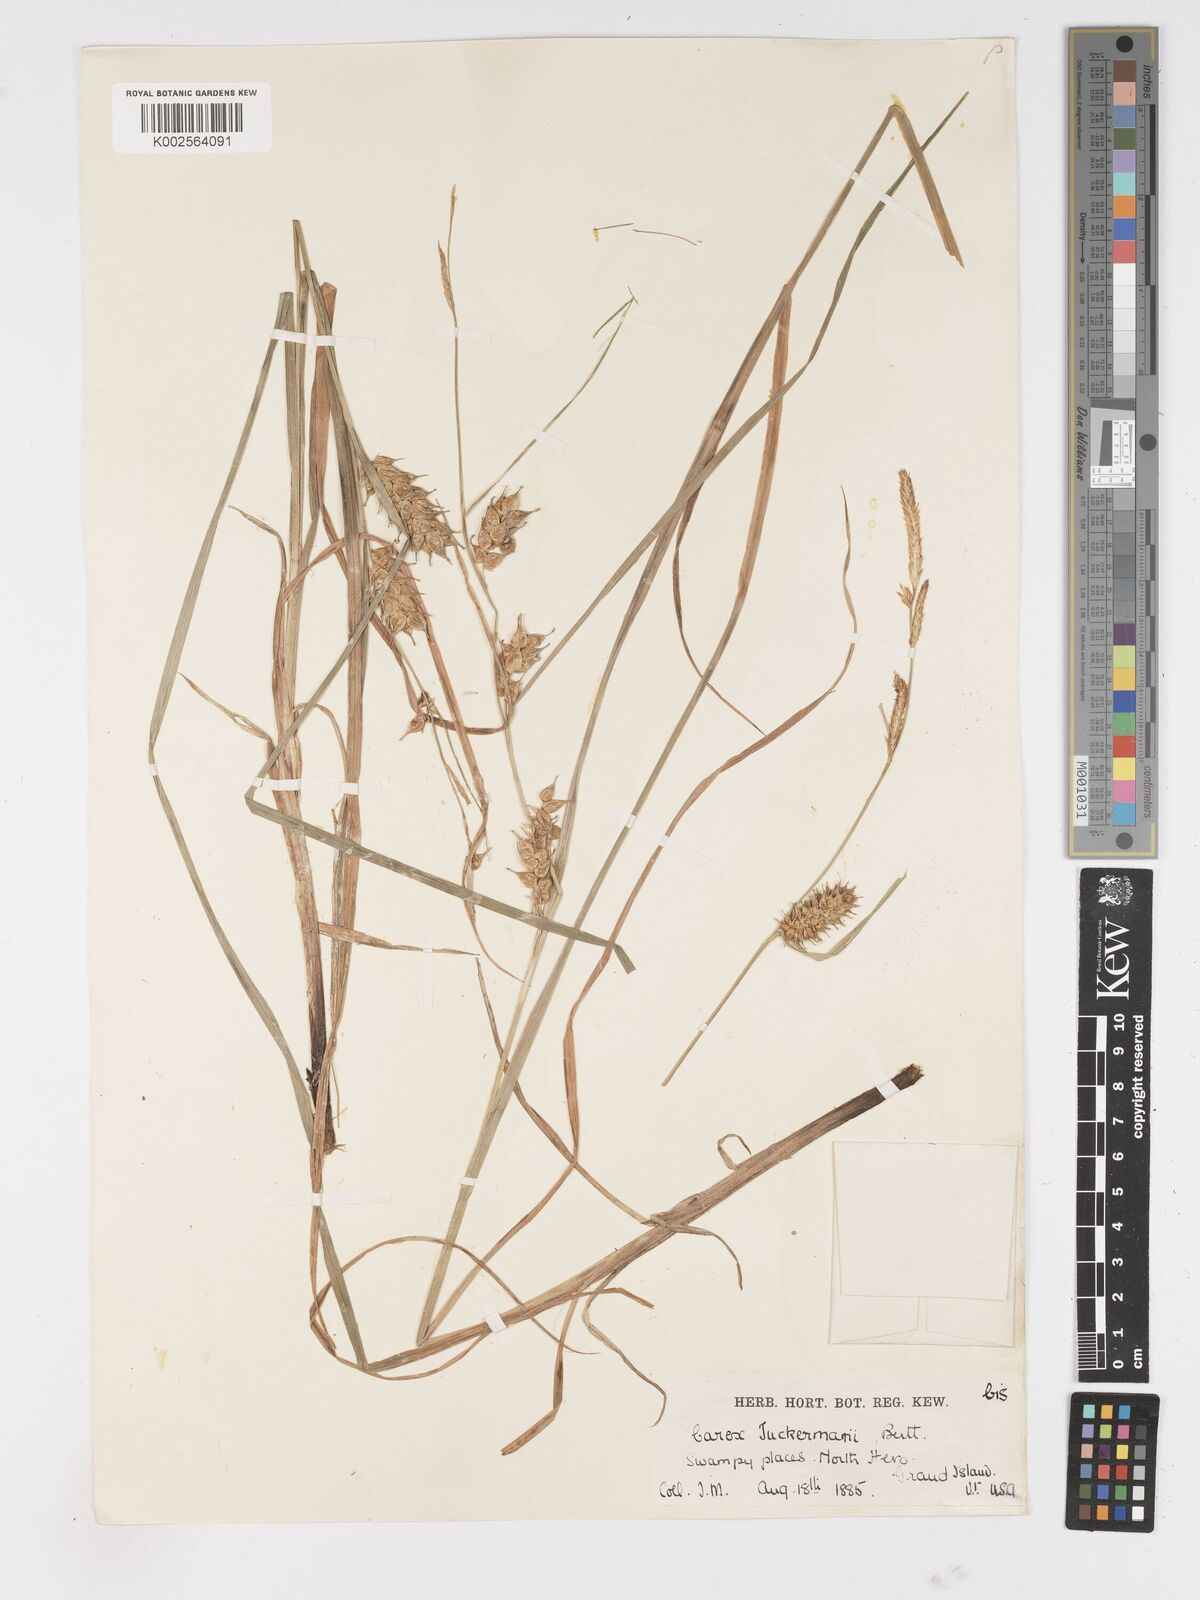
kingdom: Plantae
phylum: Tracheophyta
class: Liliopsida
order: Poales
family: Cyperaceae
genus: Carex
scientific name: Carex tuckermanii
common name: Tuckerman's sedge
